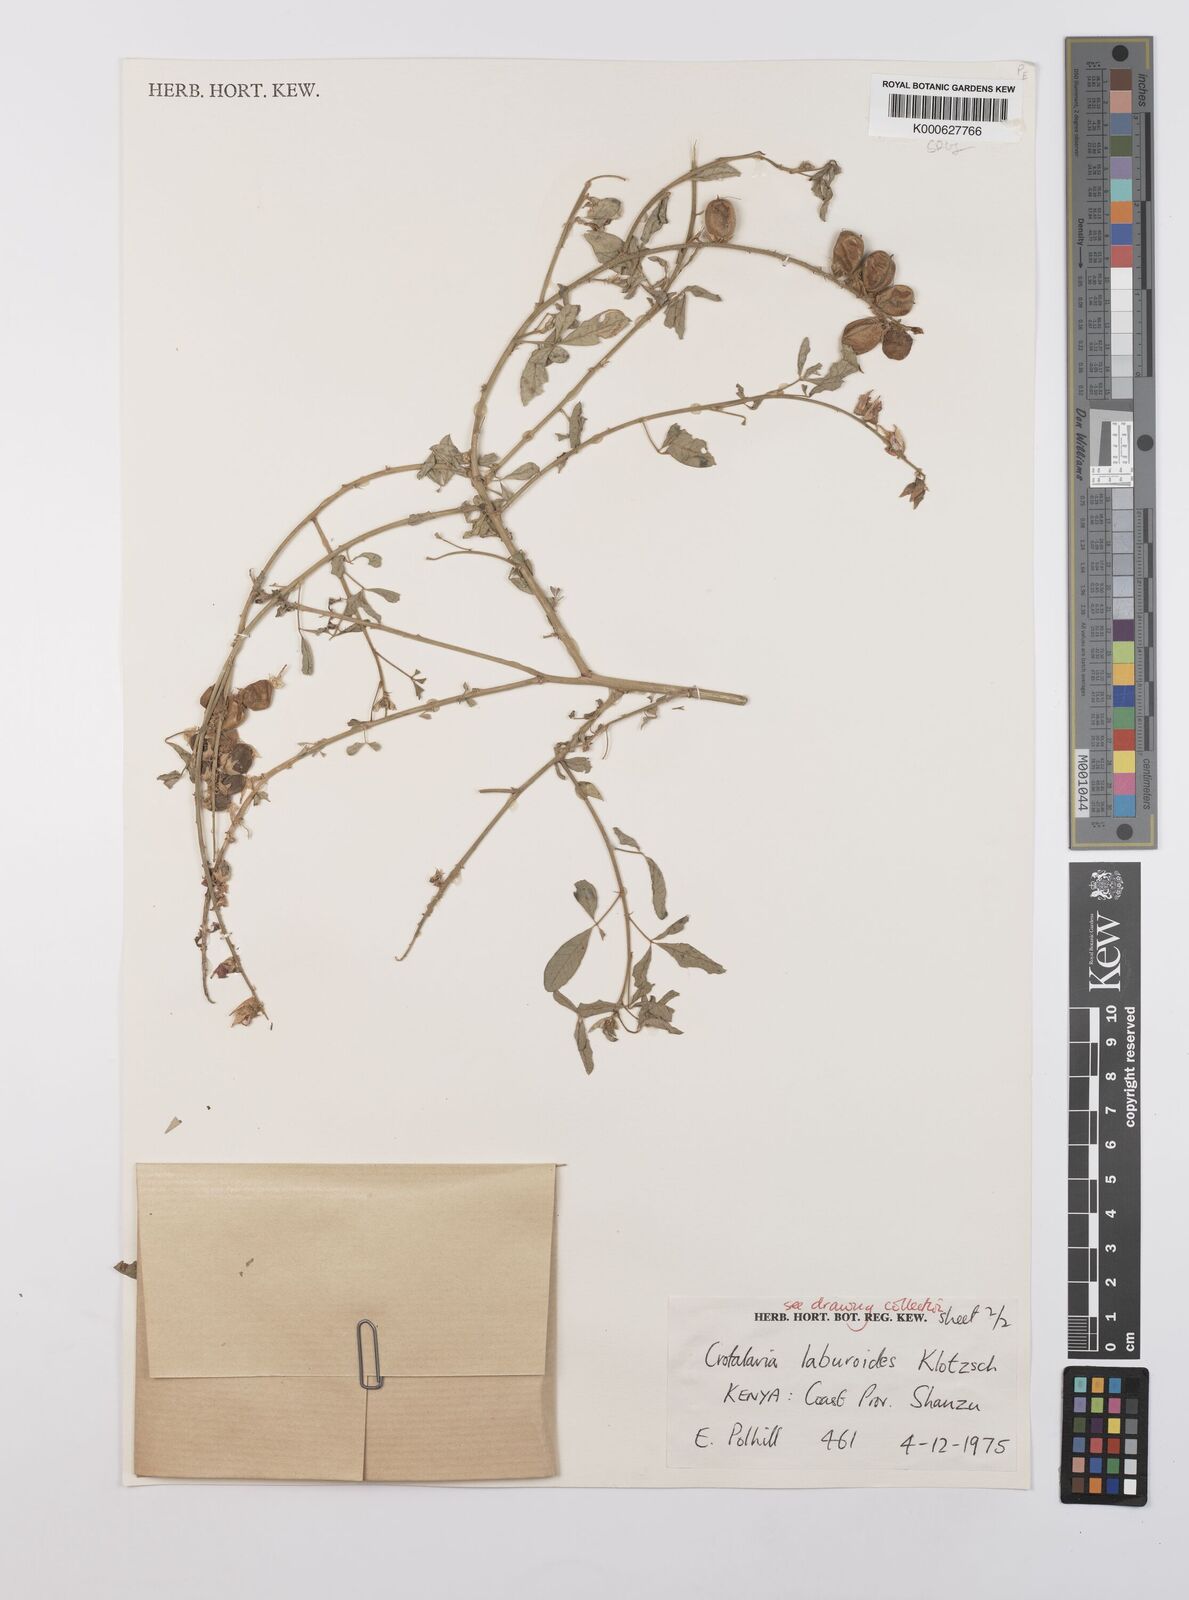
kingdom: Plantae
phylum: Tracheophyta
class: Magnoliopsida
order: Fabales
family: Fabaceae
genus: Crotalaria
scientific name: Crotalaria laburnoides
